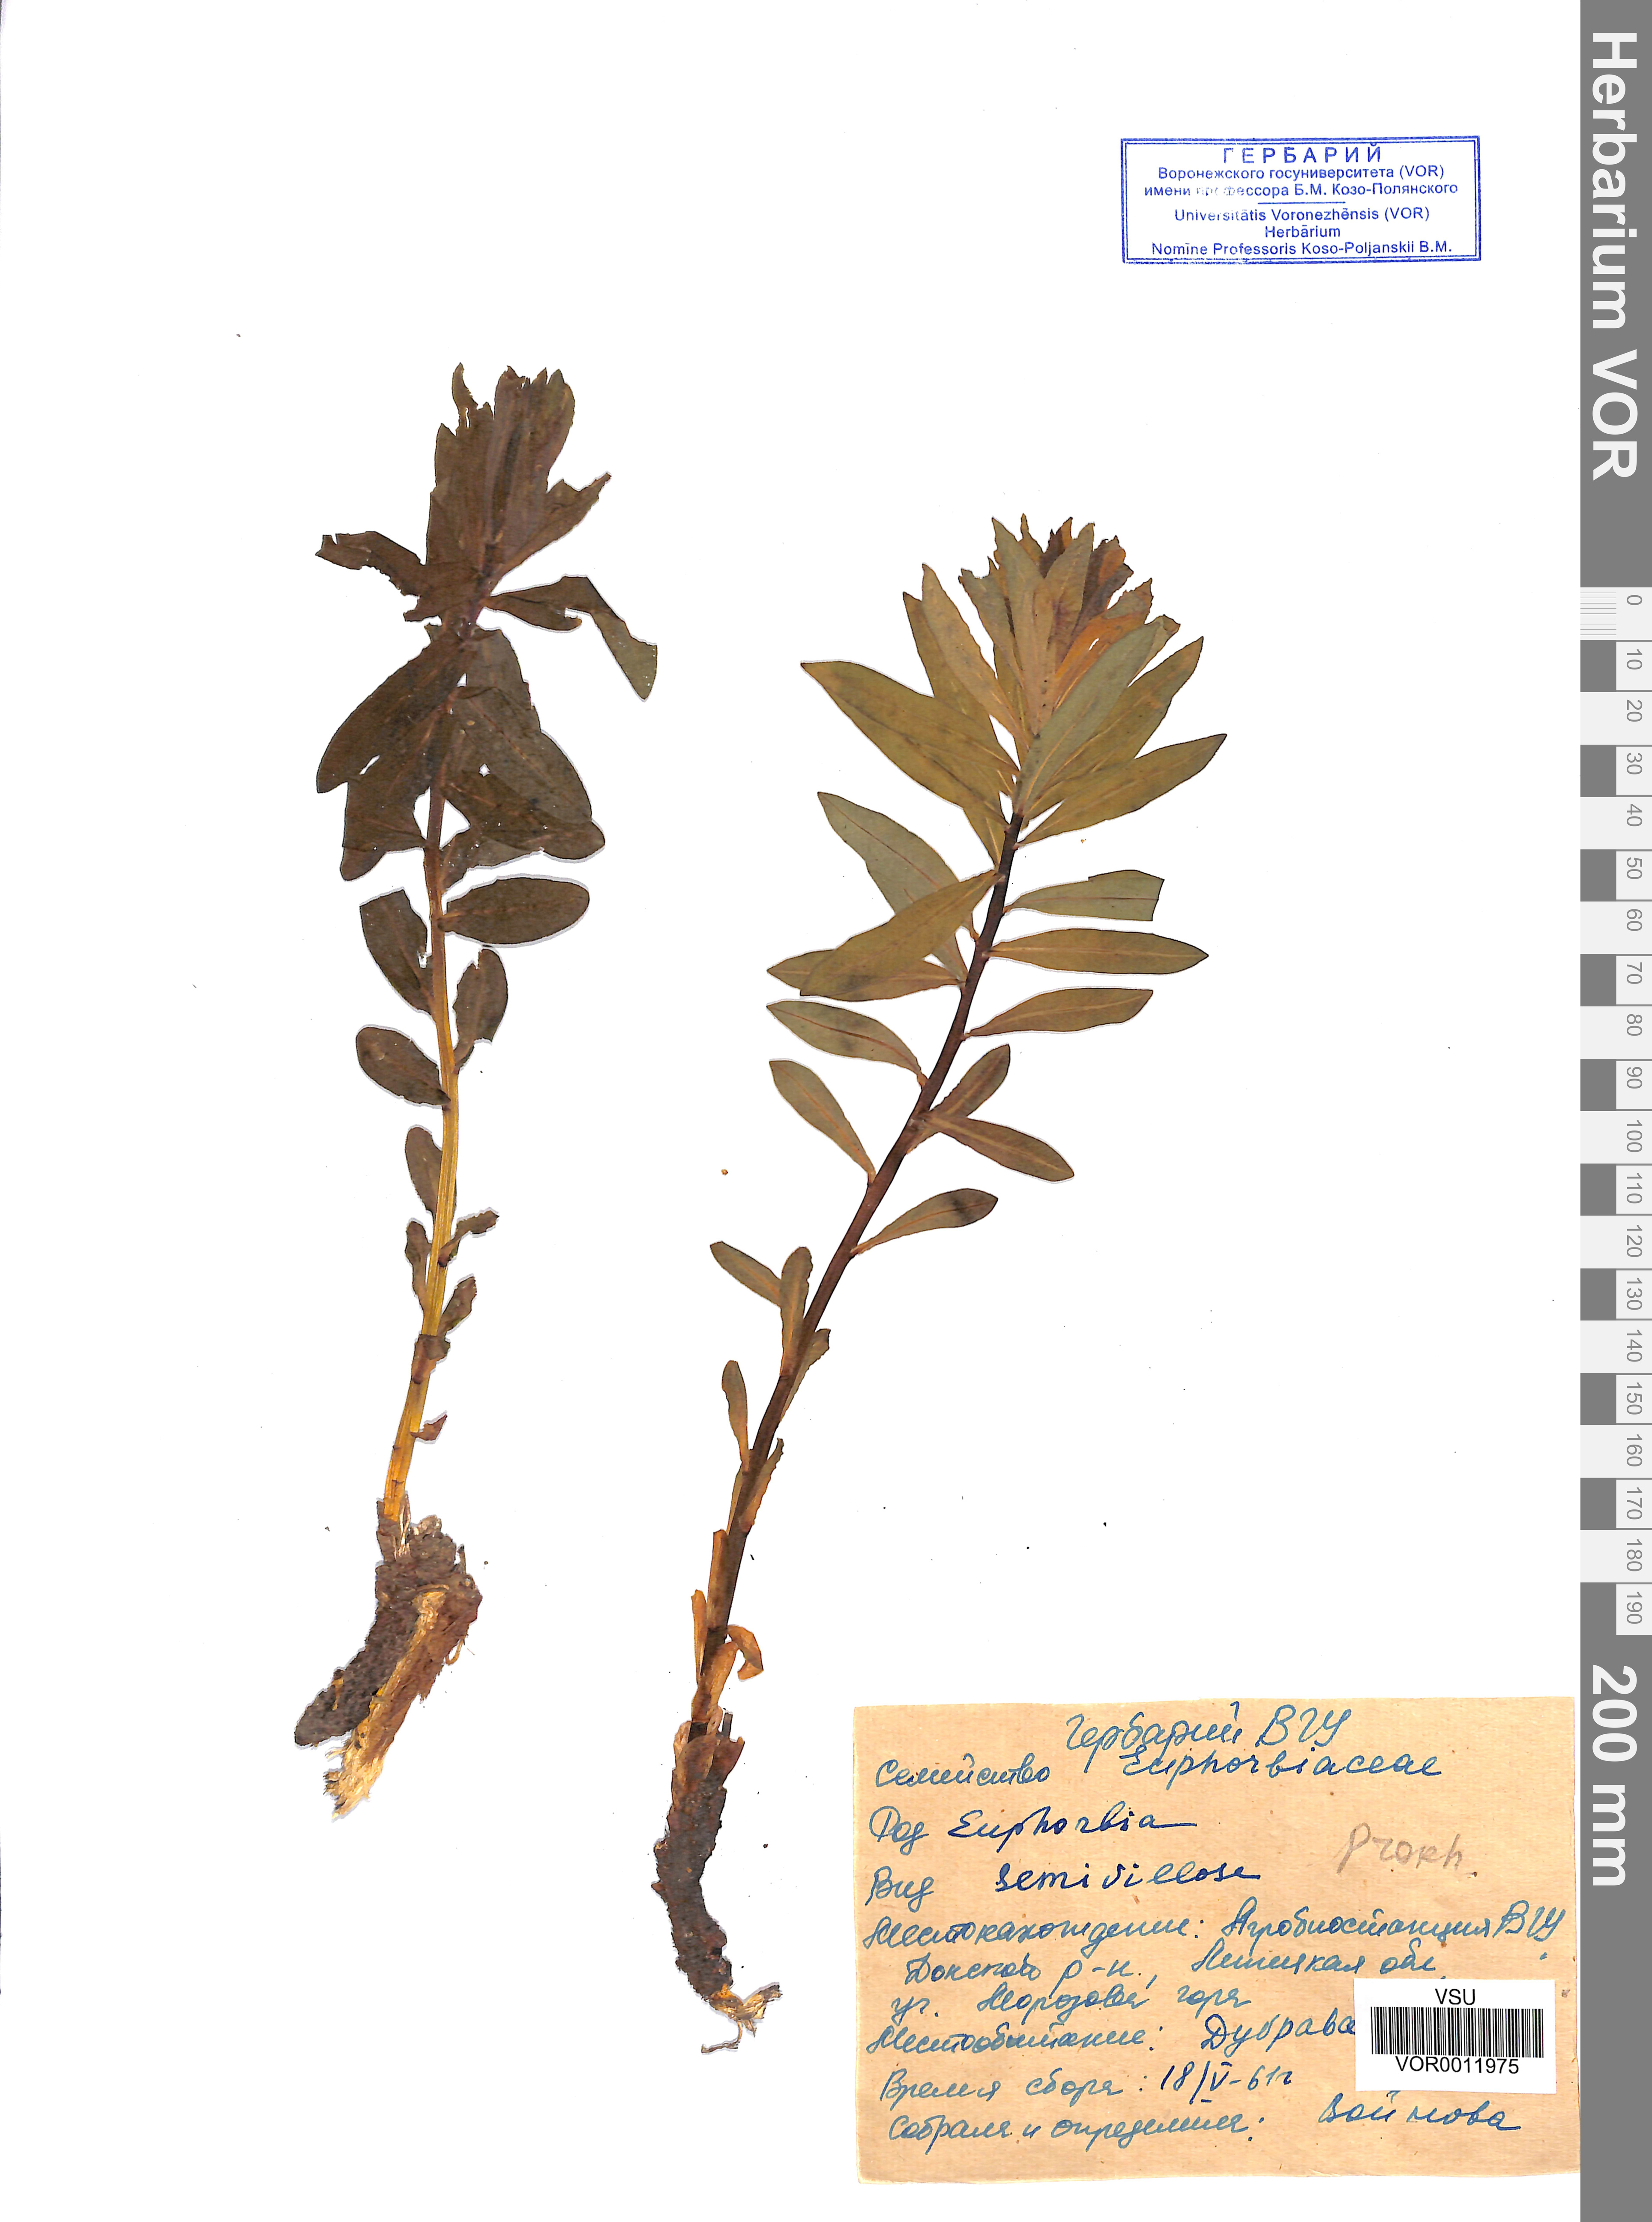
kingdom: Plantae
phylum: Tracheophyta
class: Magnoliopsida
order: Malpighiales
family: Euphorbiaceae
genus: Euphorbia
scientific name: Euphorbia semivillosa
